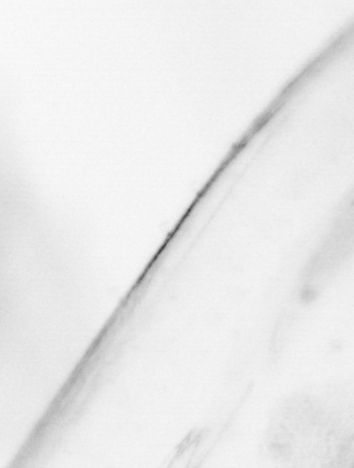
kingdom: Animalia
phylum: Chaetognatha
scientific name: Chaetognatha
